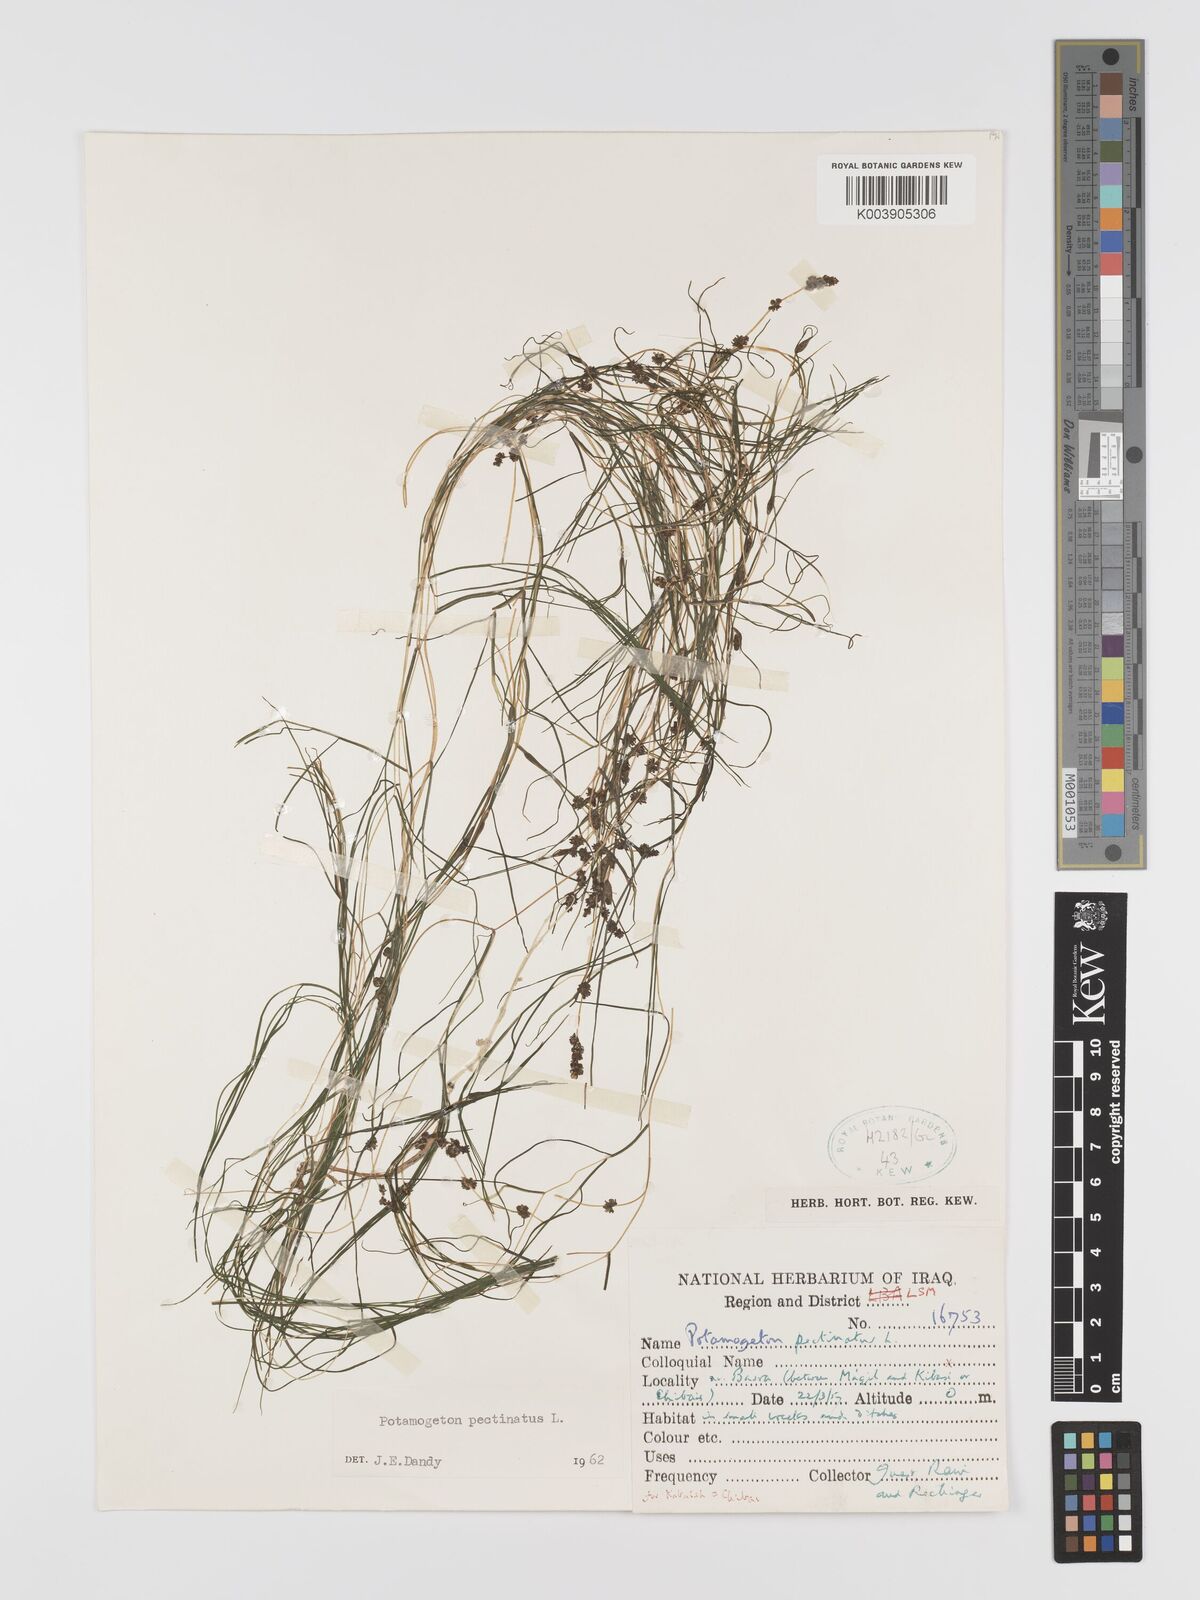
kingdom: Plantae
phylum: Tracheophyta
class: Liliopsida
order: Alismatales
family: Potamogetonaceae
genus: Stuckenia
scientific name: Stuckenia pectinata
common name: Sago pondweed
